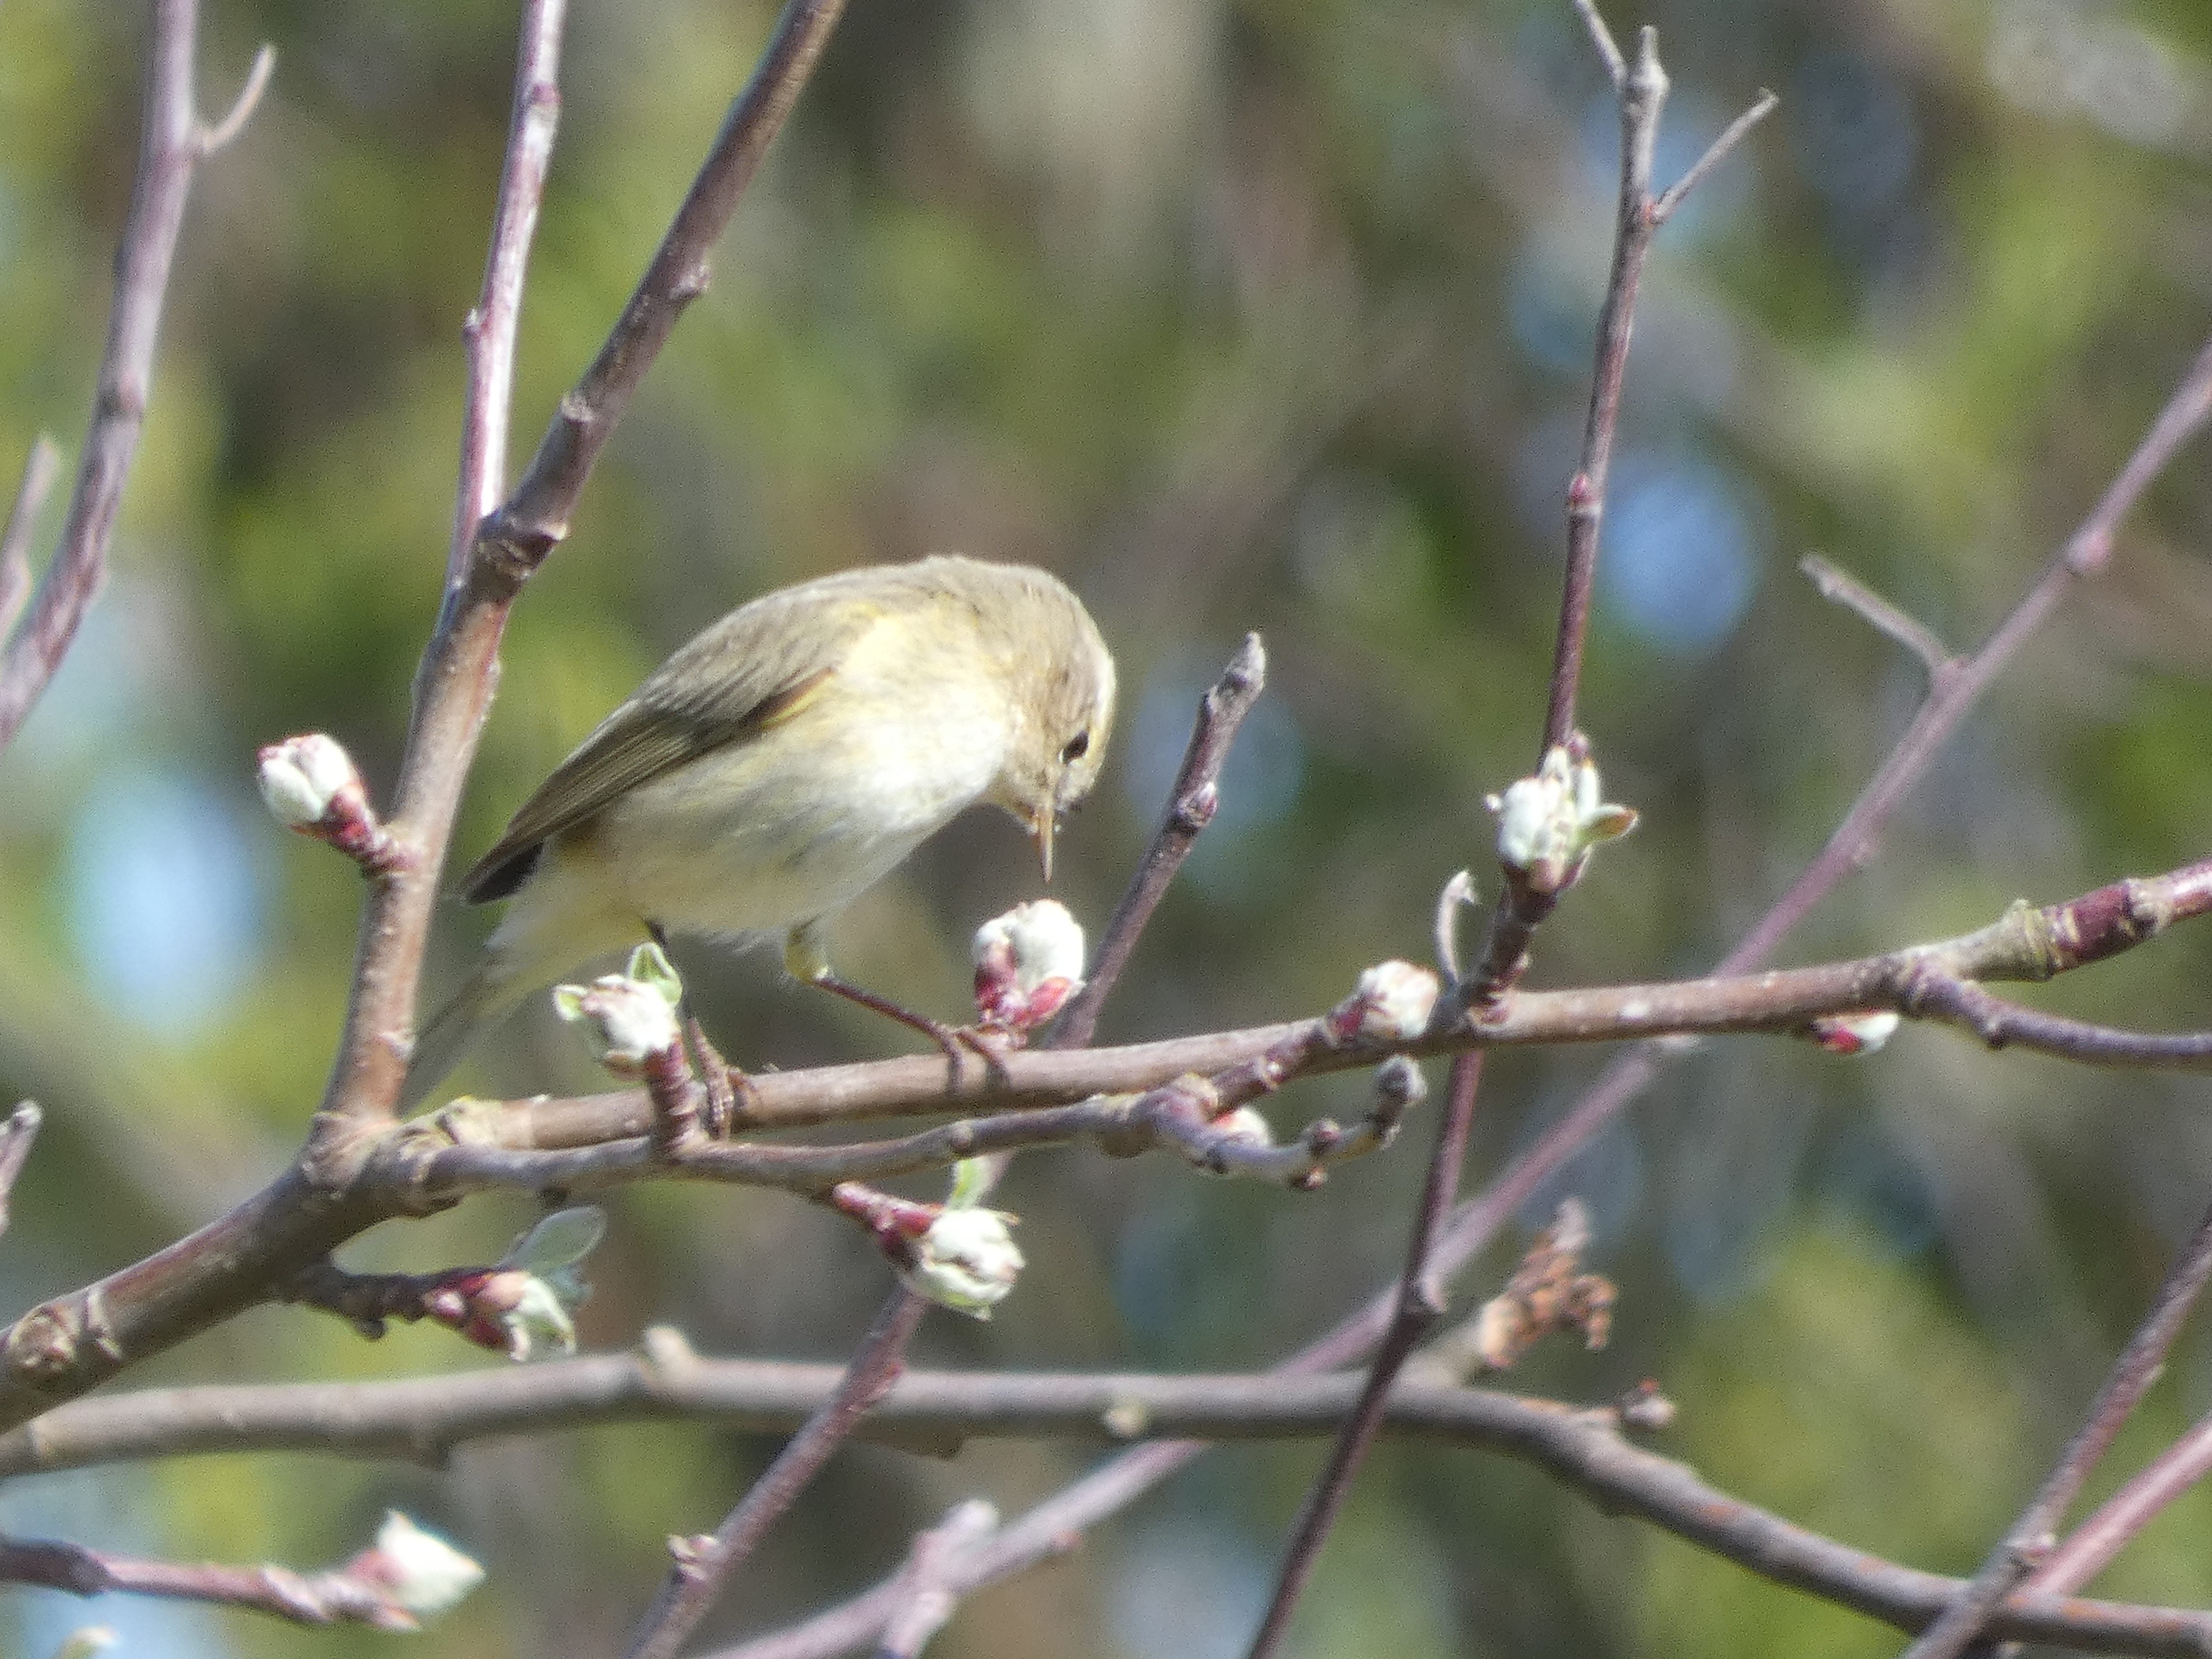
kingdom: Animalia
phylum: Chordata
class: Aves
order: Passeriformes
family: Phylloscopidae
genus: Phylloscopus
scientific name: Phylloscopus collybita
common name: Gransanger
